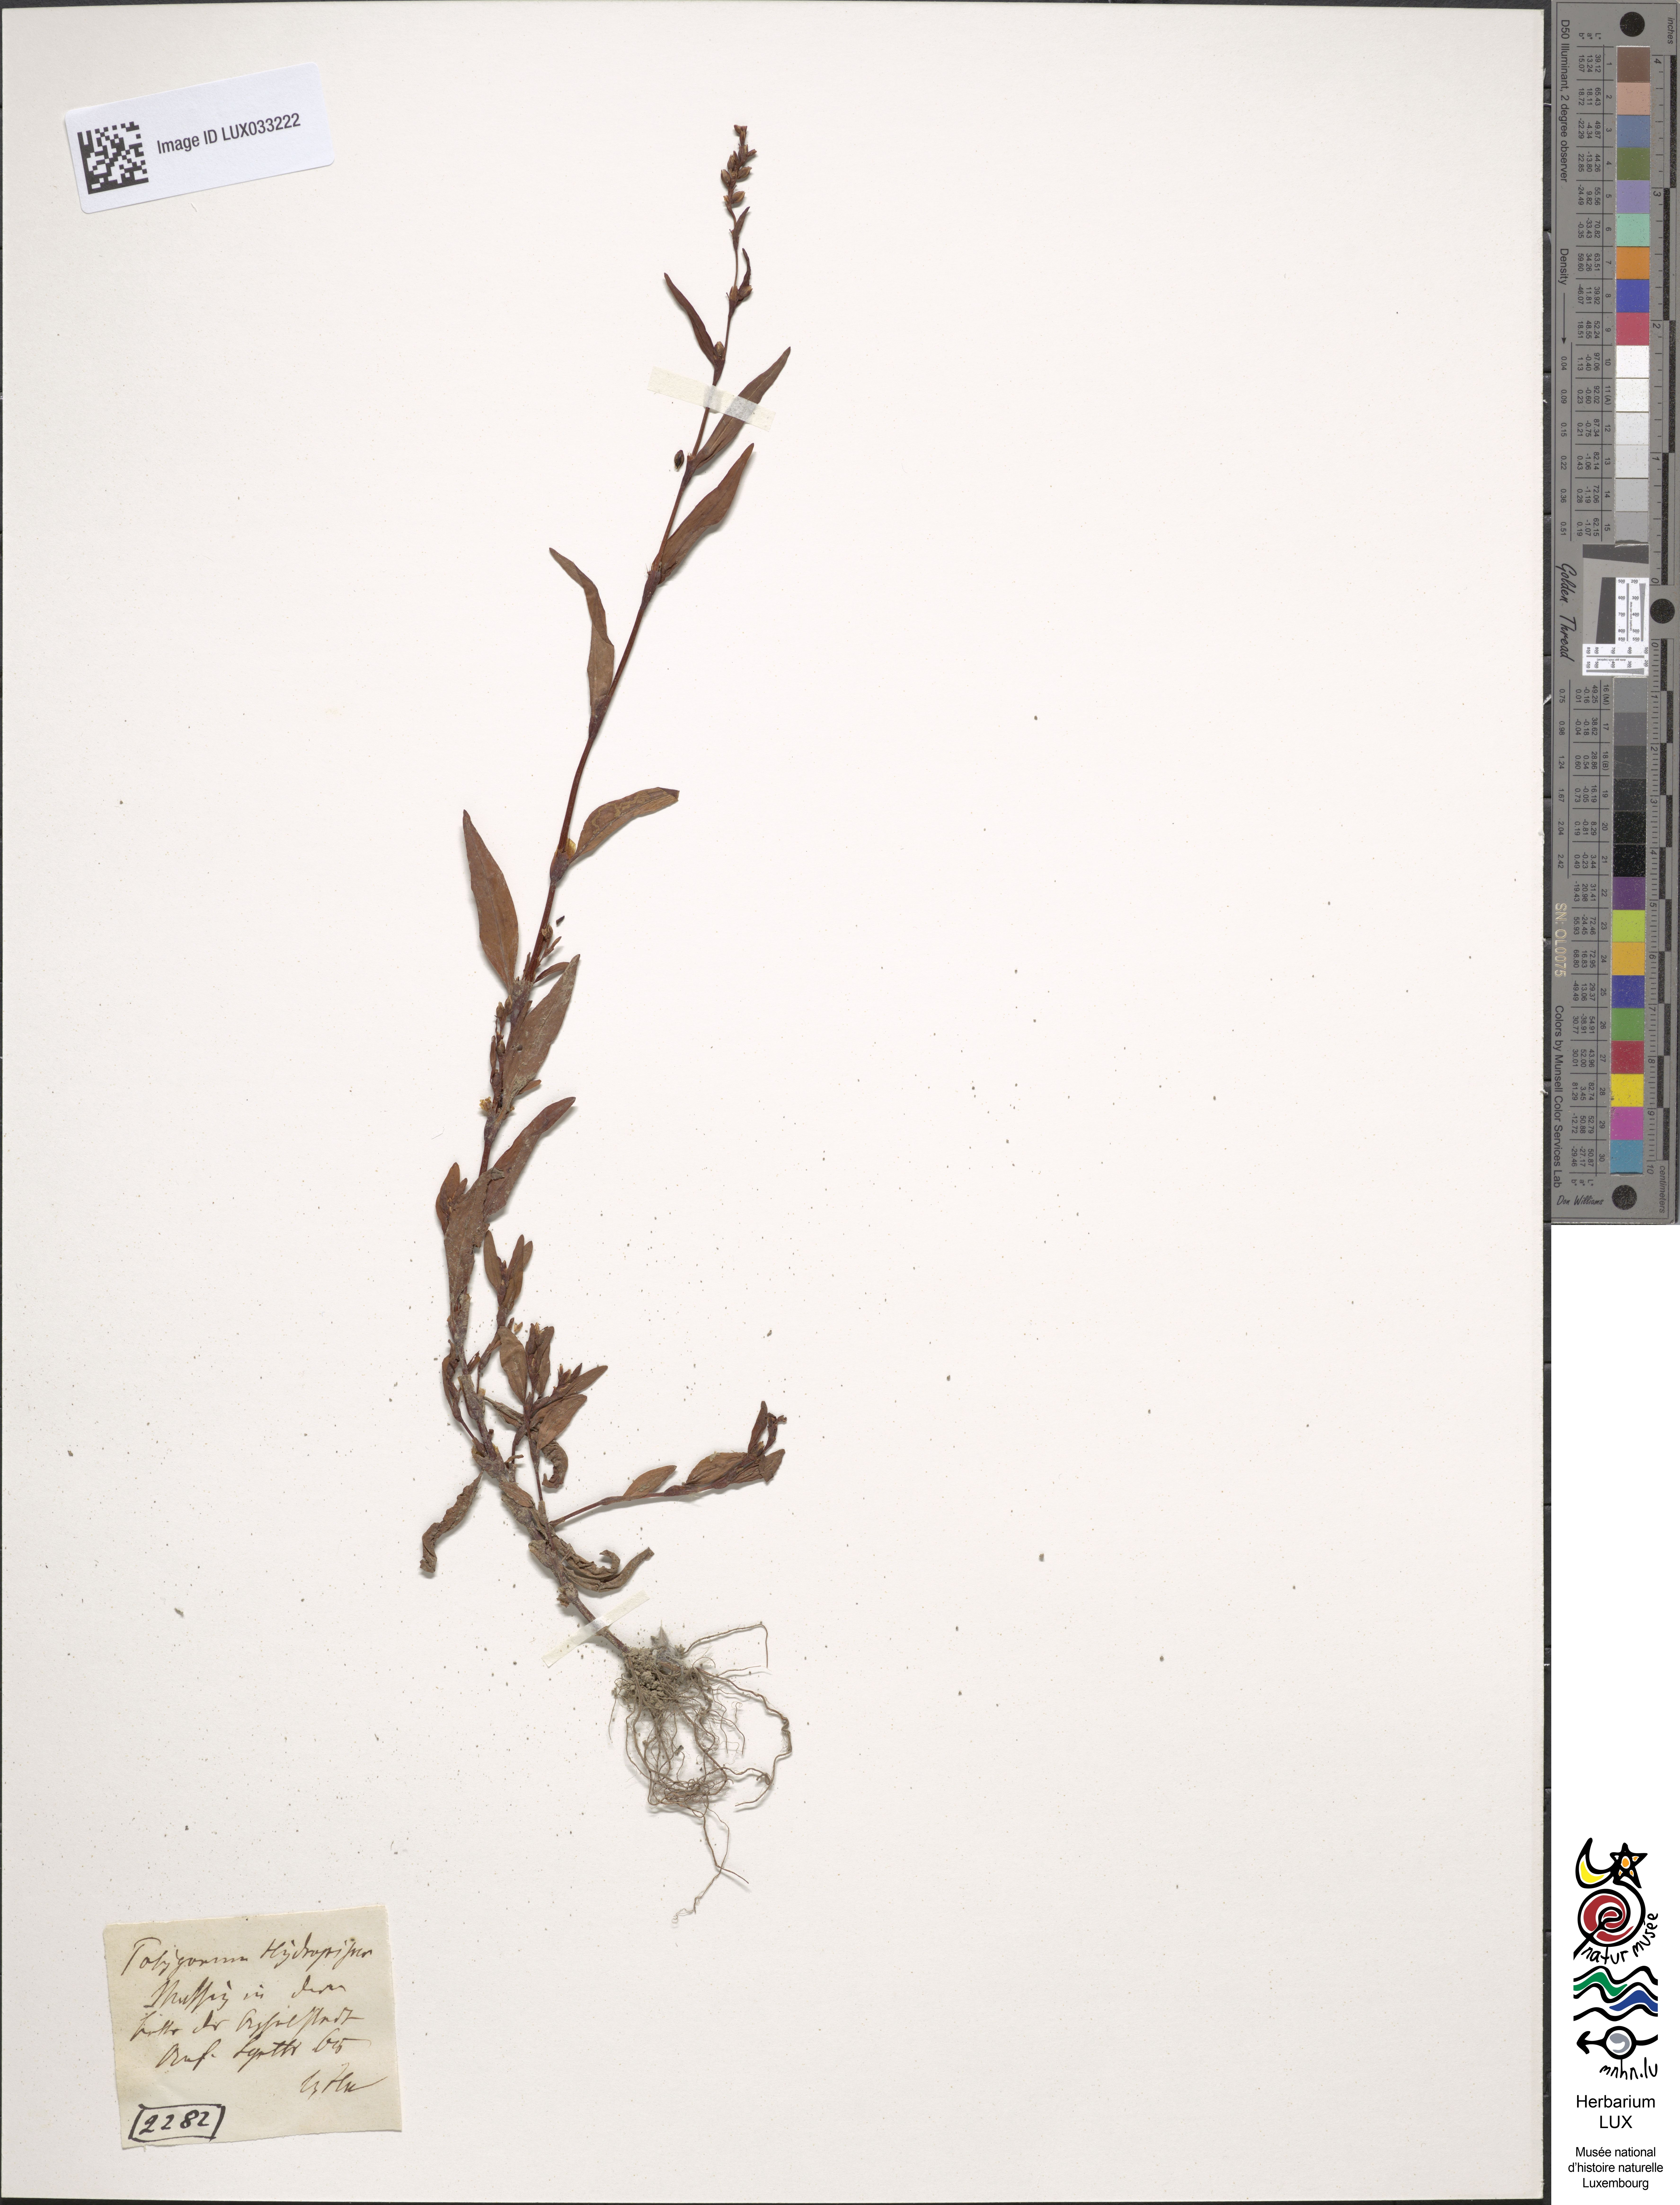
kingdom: Plantae
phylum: Tracheophyta
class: Magnoliopsida
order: Caryophyllales
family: Polygonaceae
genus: Persicaria
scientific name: Persicaria hydropiper
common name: Water-pepper
